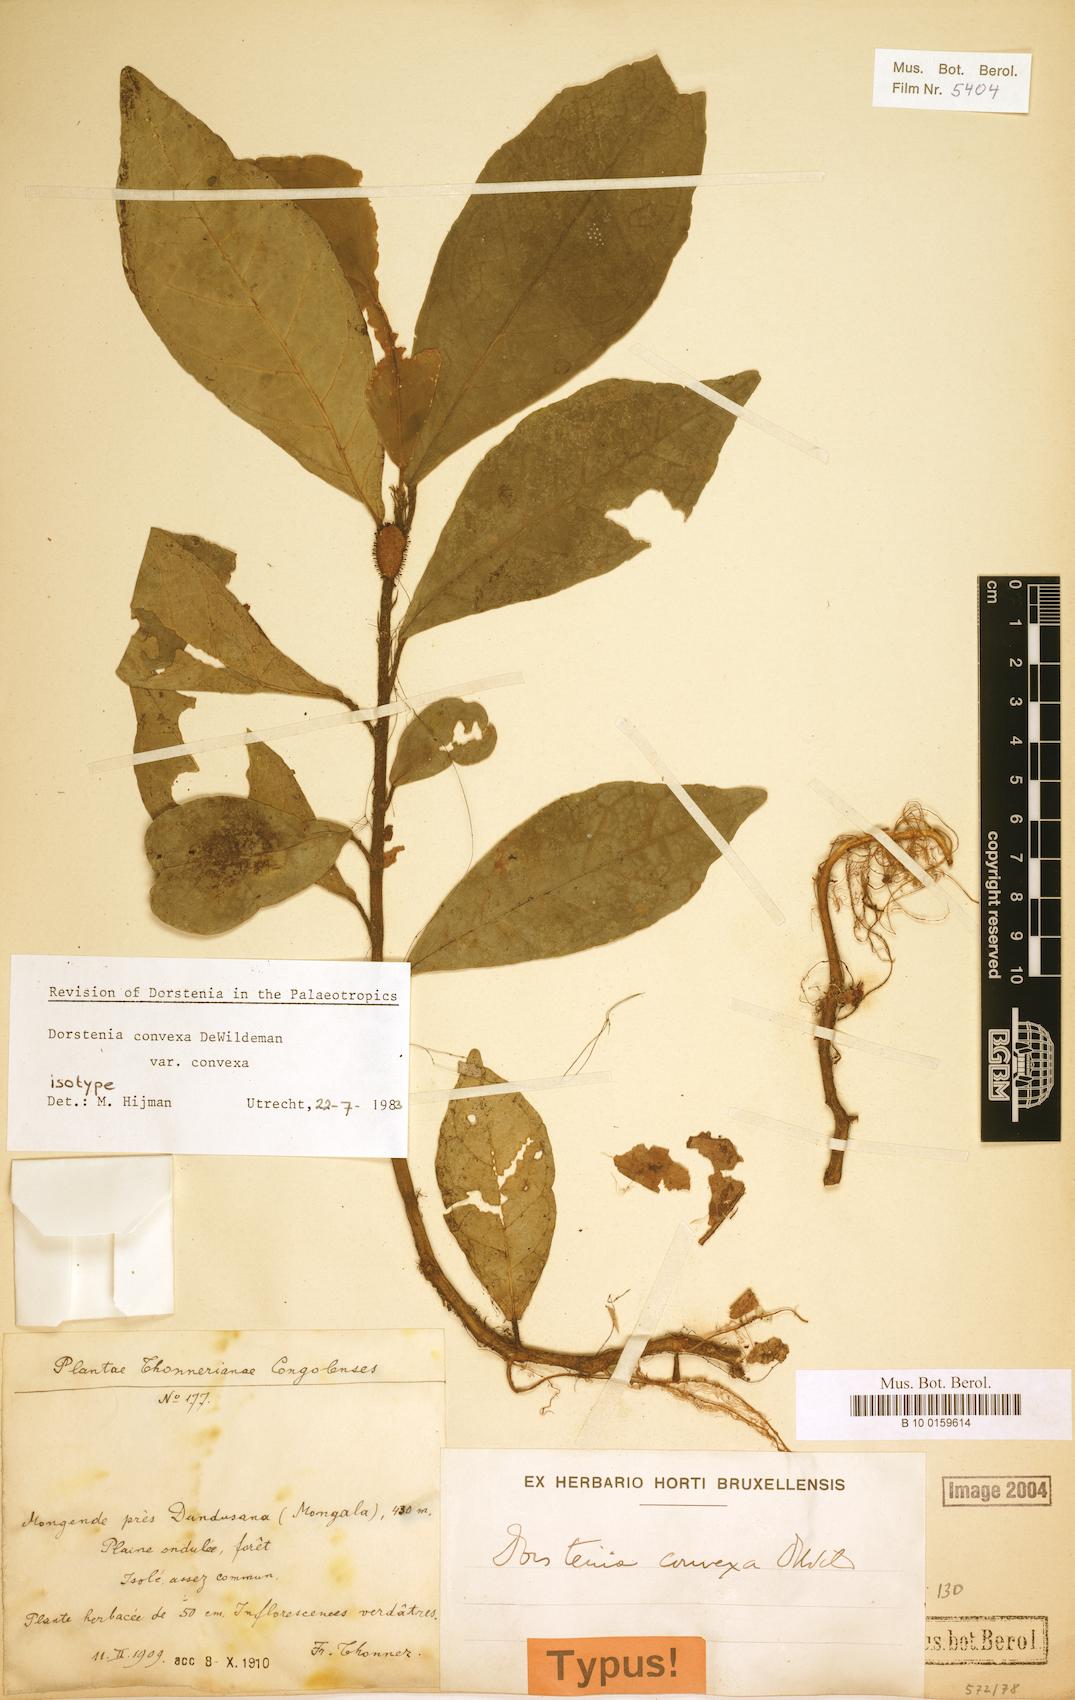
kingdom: Plantae
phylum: Tracheophyta
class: Magnoliopsida
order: Rosales
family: Moraceae
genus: Dorstenia
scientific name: Dorstenia convexa
